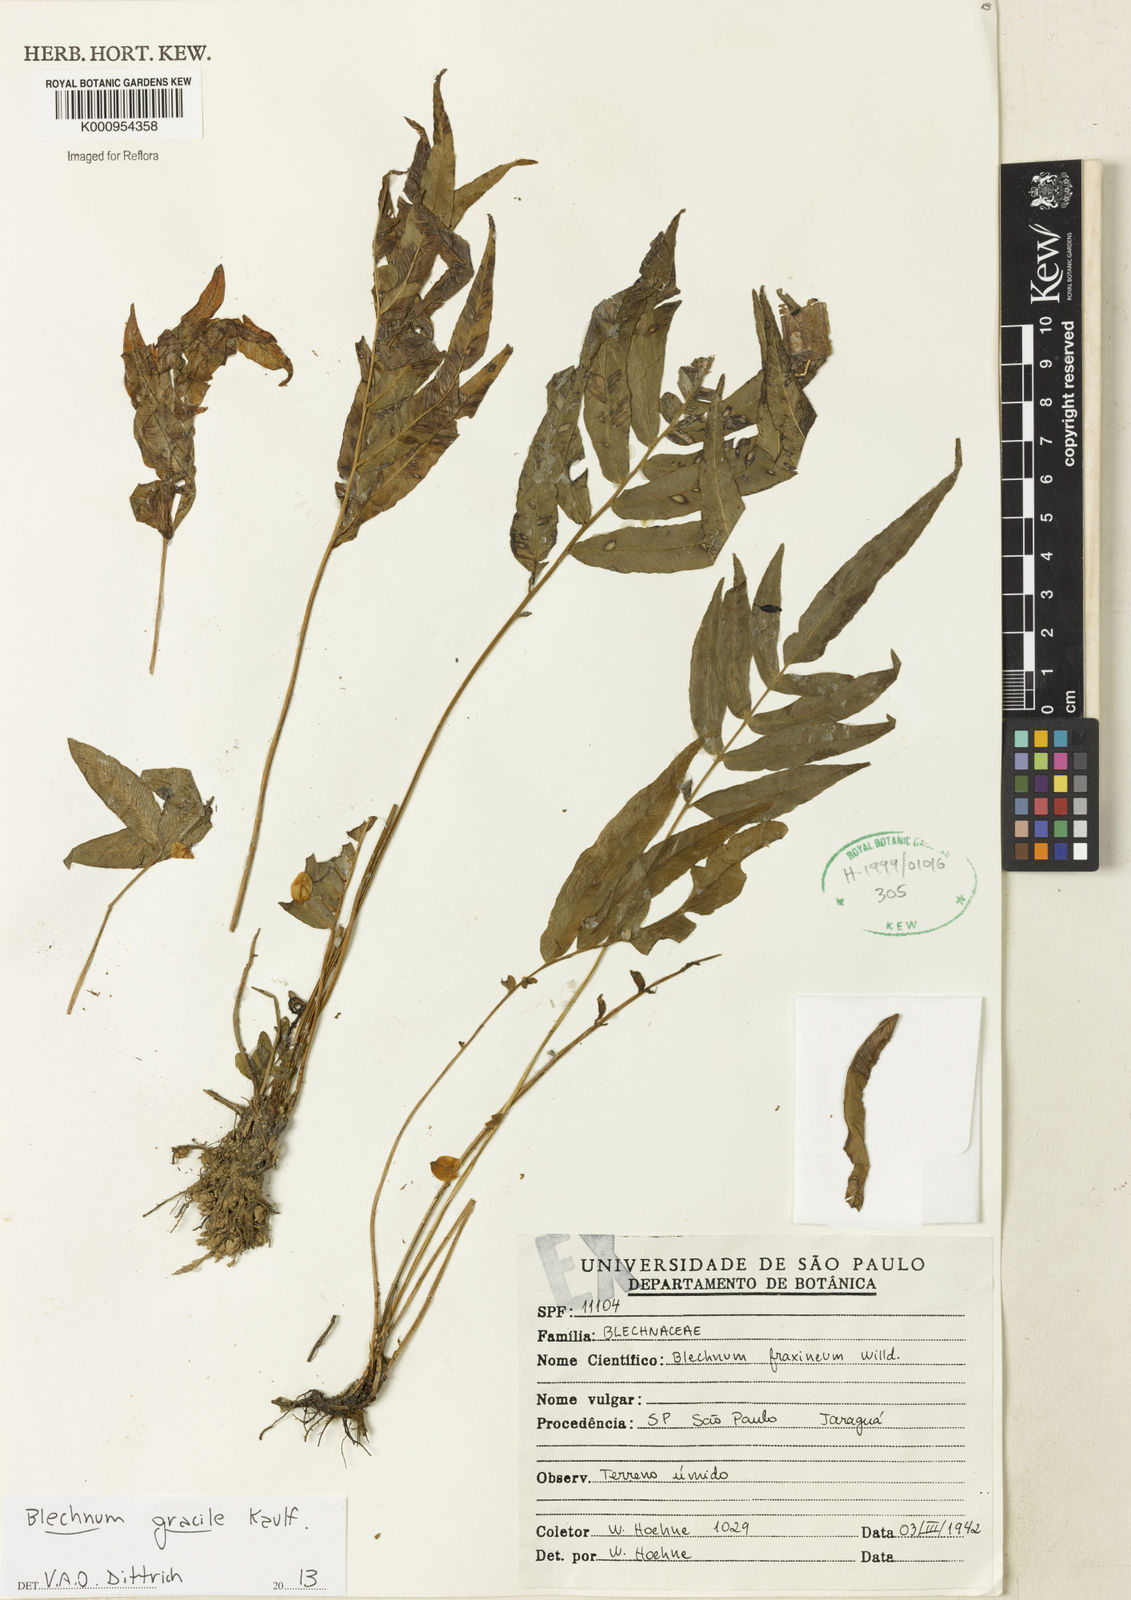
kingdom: Plantae
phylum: Tracheophyta
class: Polypodiopsida
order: Polypodiales
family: Blechnaceae
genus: Blechnum
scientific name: Blechnum gracile
